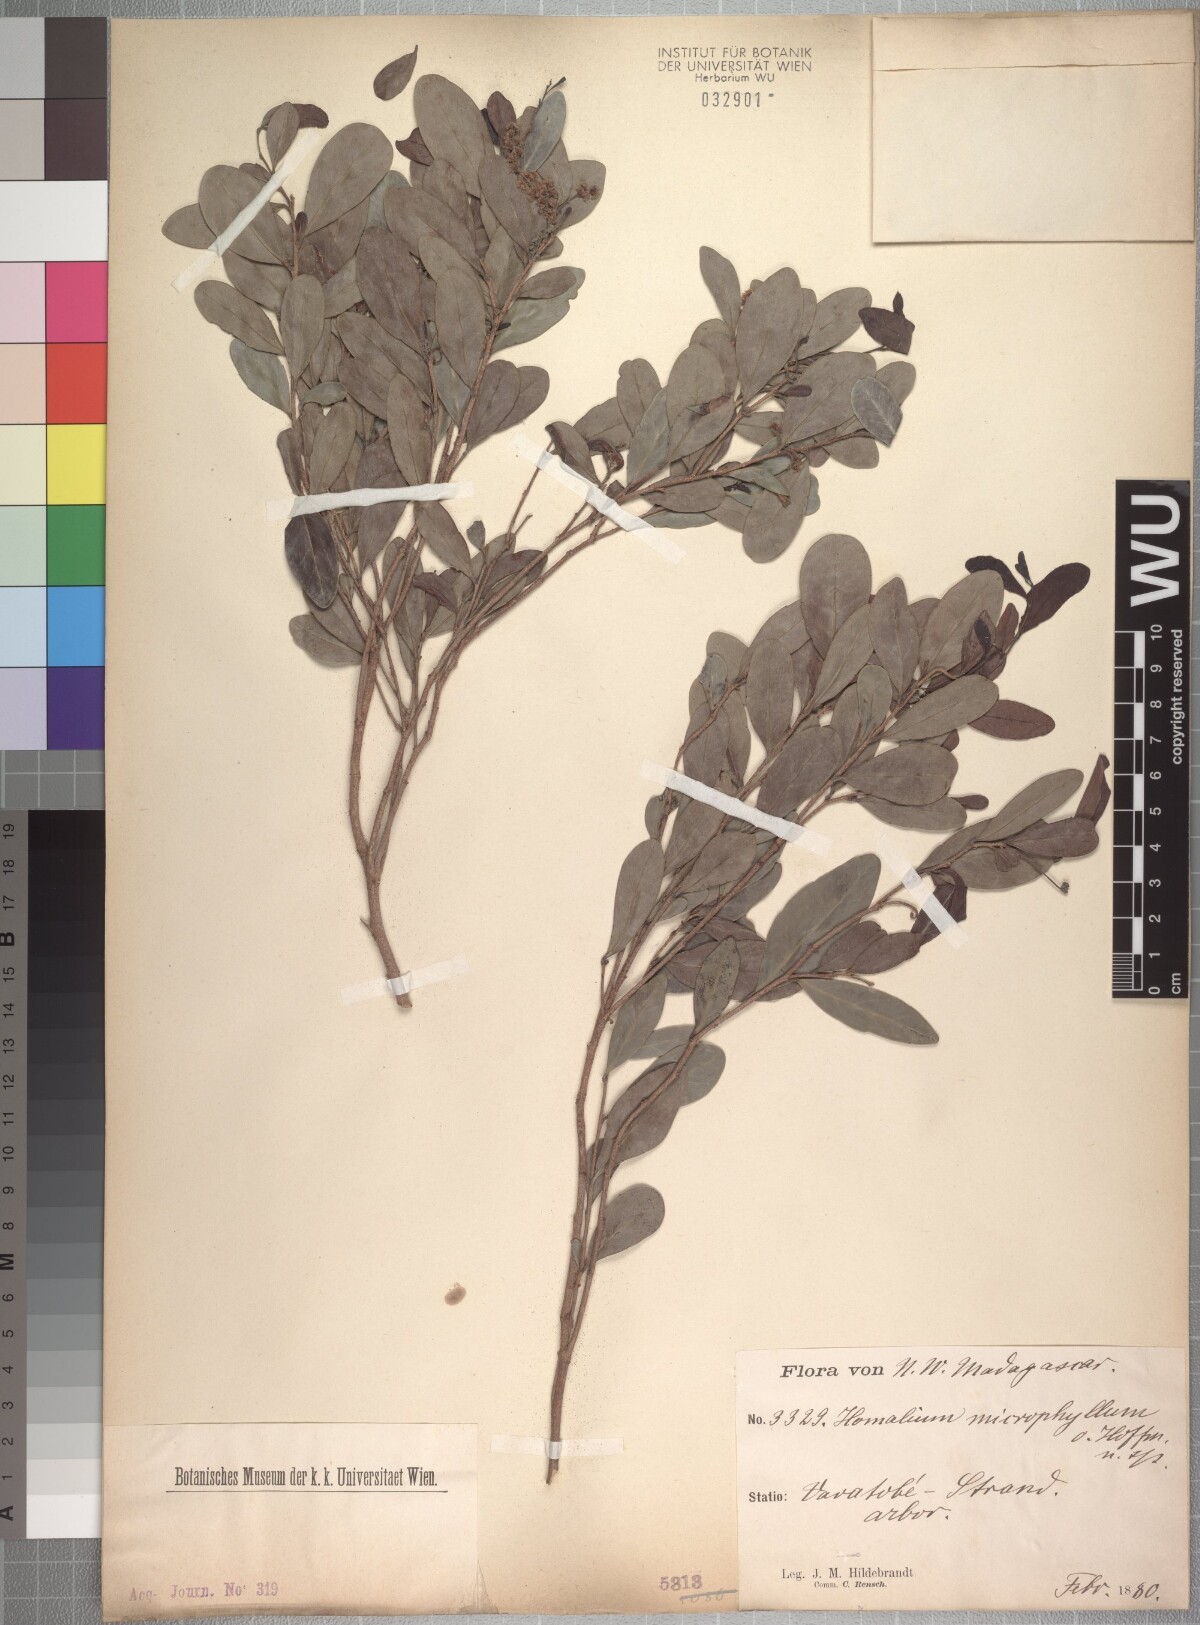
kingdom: Plantae
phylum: Tracheophyta
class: Magnoliopsida
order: Malpighiales
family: Salicaceae
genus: Homalium
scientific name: Homalium microphyllum
